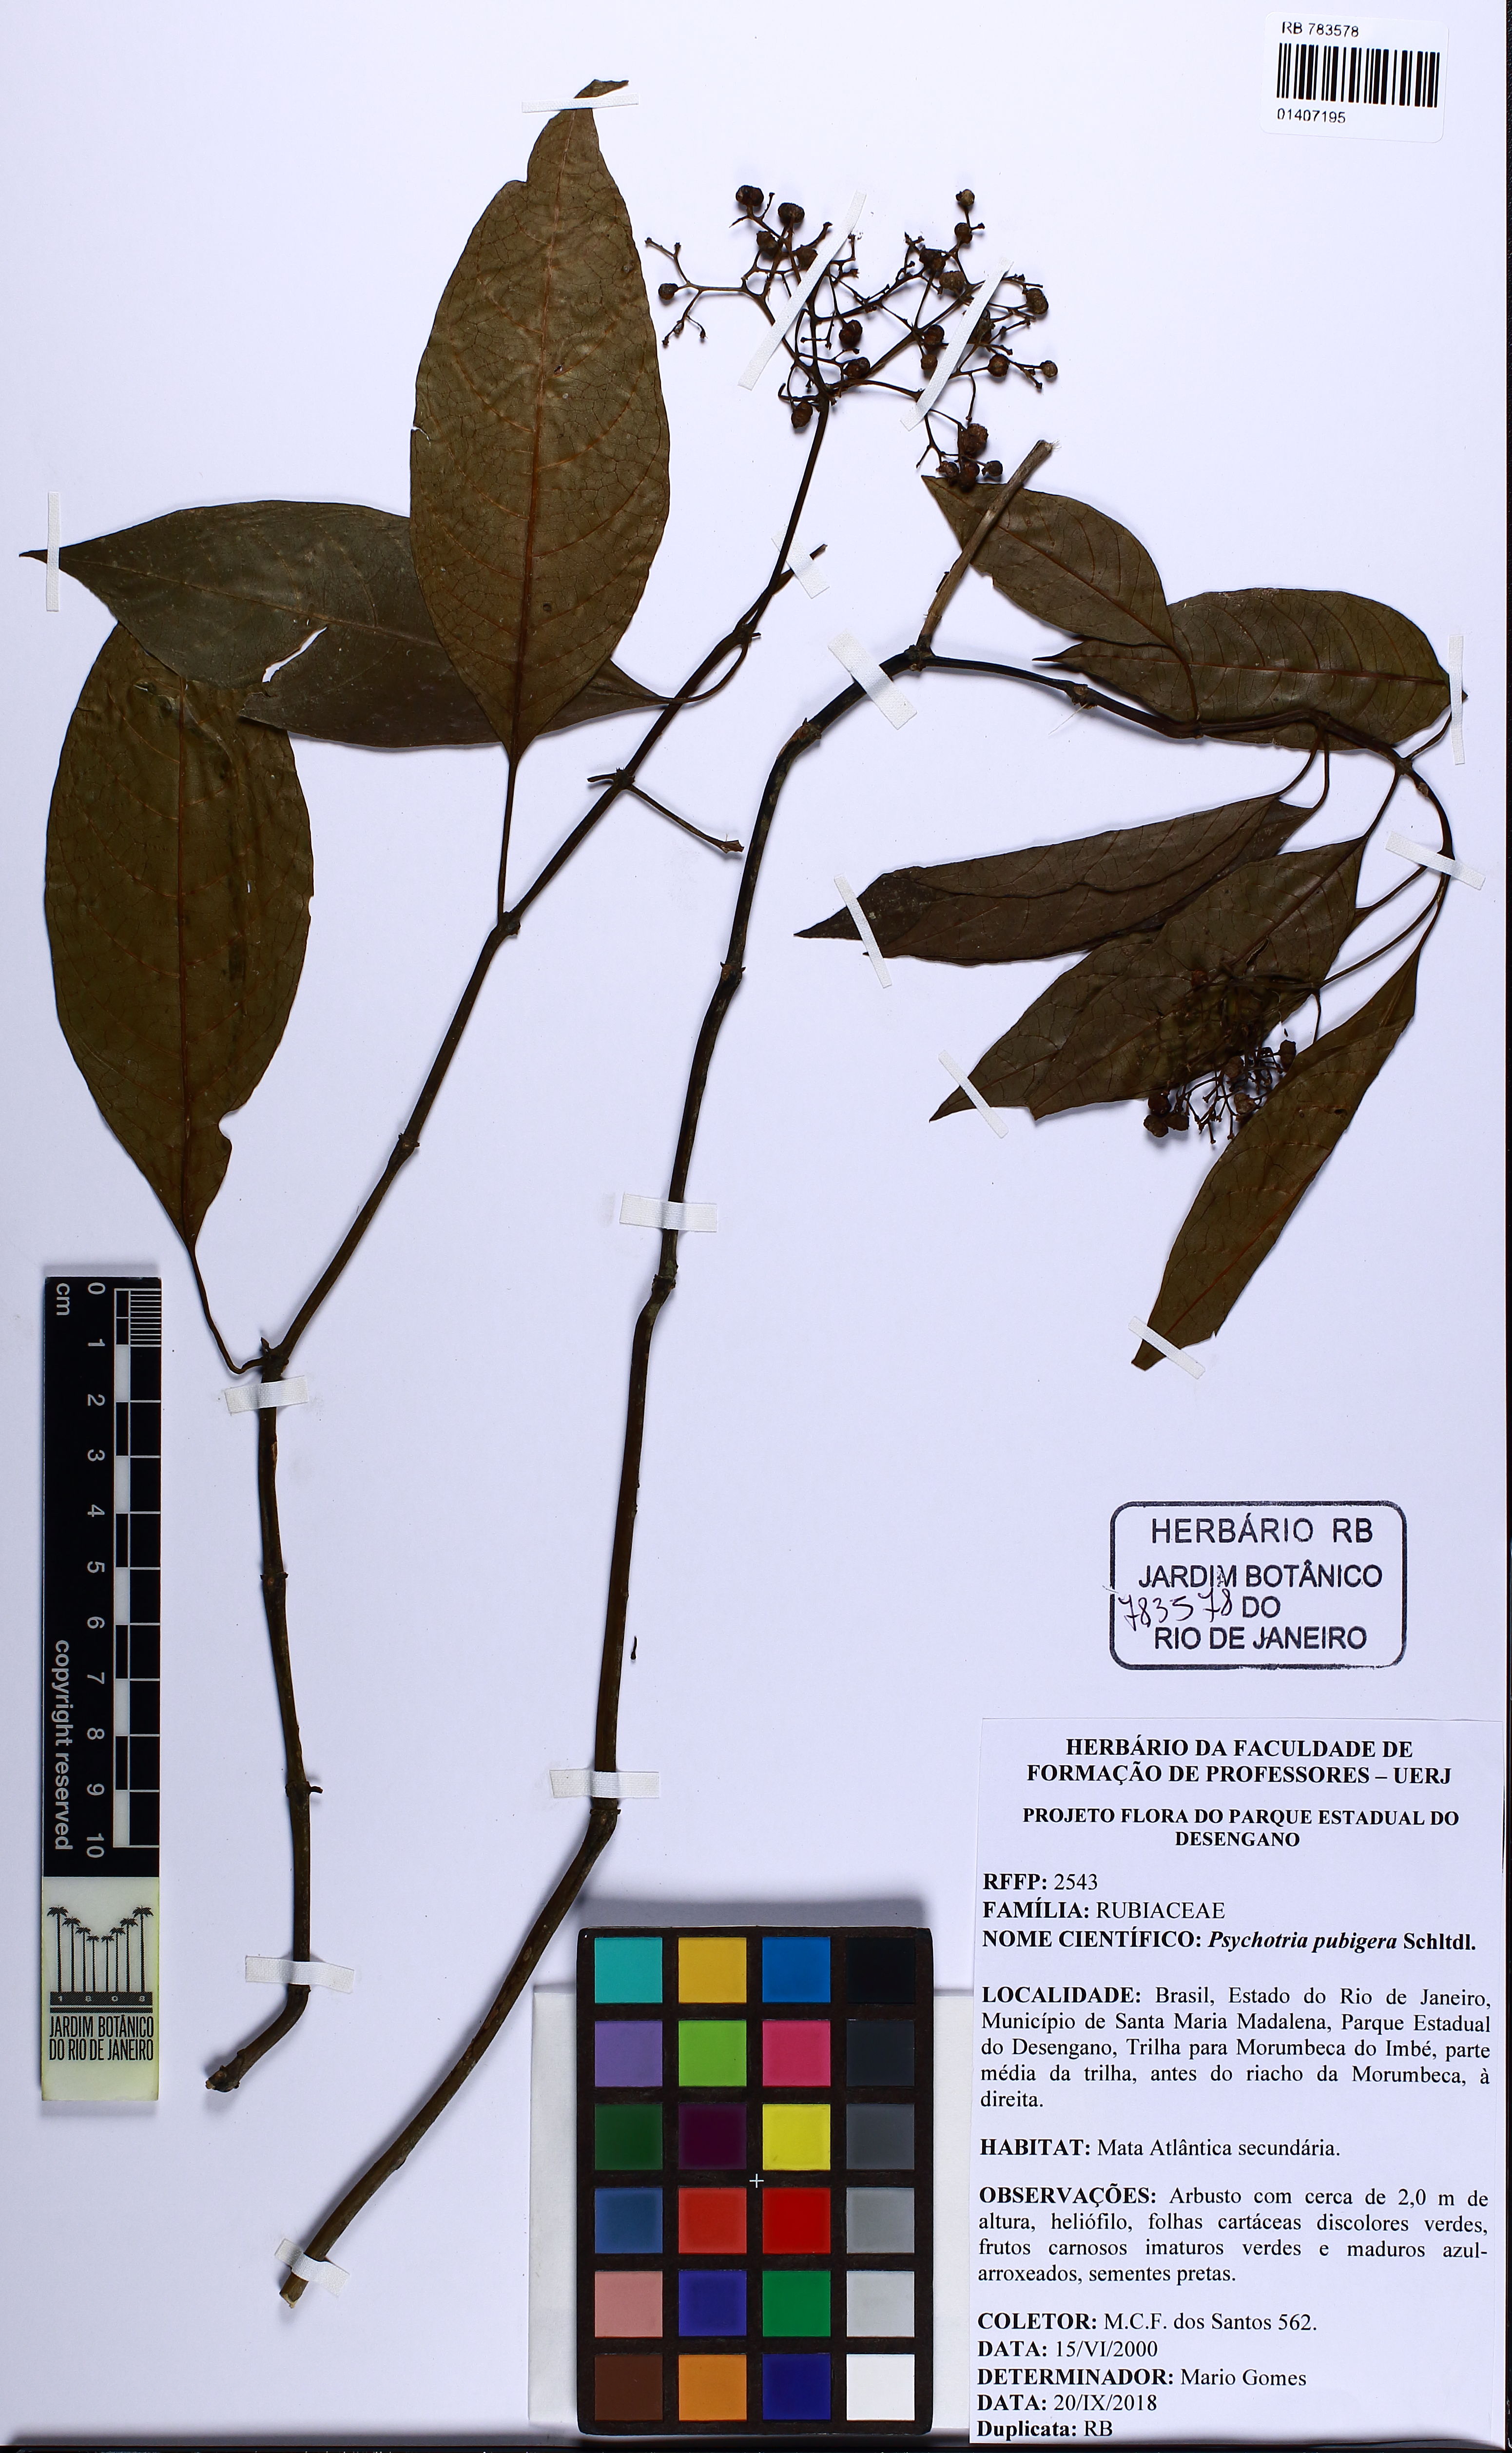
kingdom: Plantae
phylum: Tracheophyta
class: Magnoliopsida
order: Gentianales
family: Rubiaceae
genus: Psychotria
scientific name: Psychotria nemorosa
